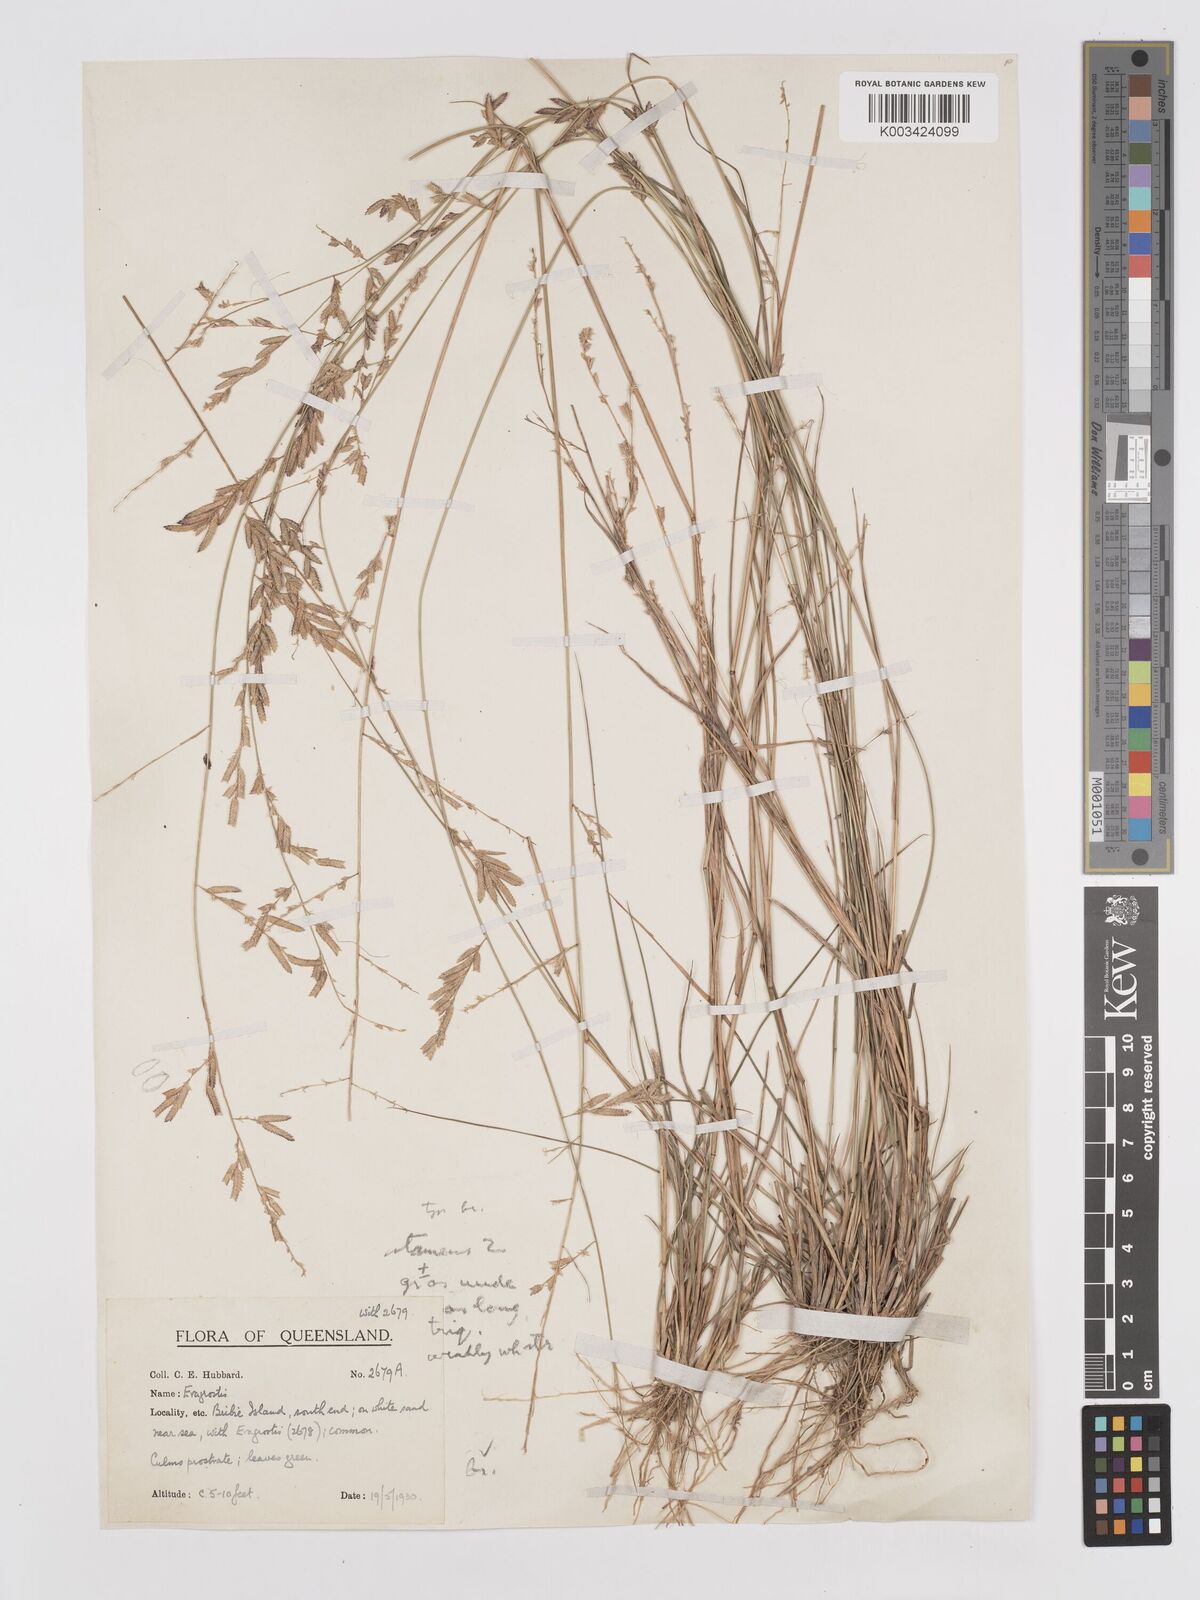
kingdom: Plantae
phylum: Tracheophyta
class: Liliopsida
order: Poales
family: Poaceae
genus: Eragrostis
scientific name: Eragrostis brownii
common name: Lovegrass
